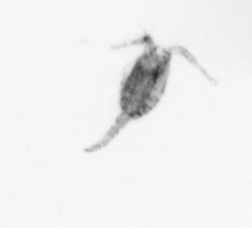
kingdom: Animalia
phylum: Arthropoda
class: Copepoda
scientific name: Copepoda
